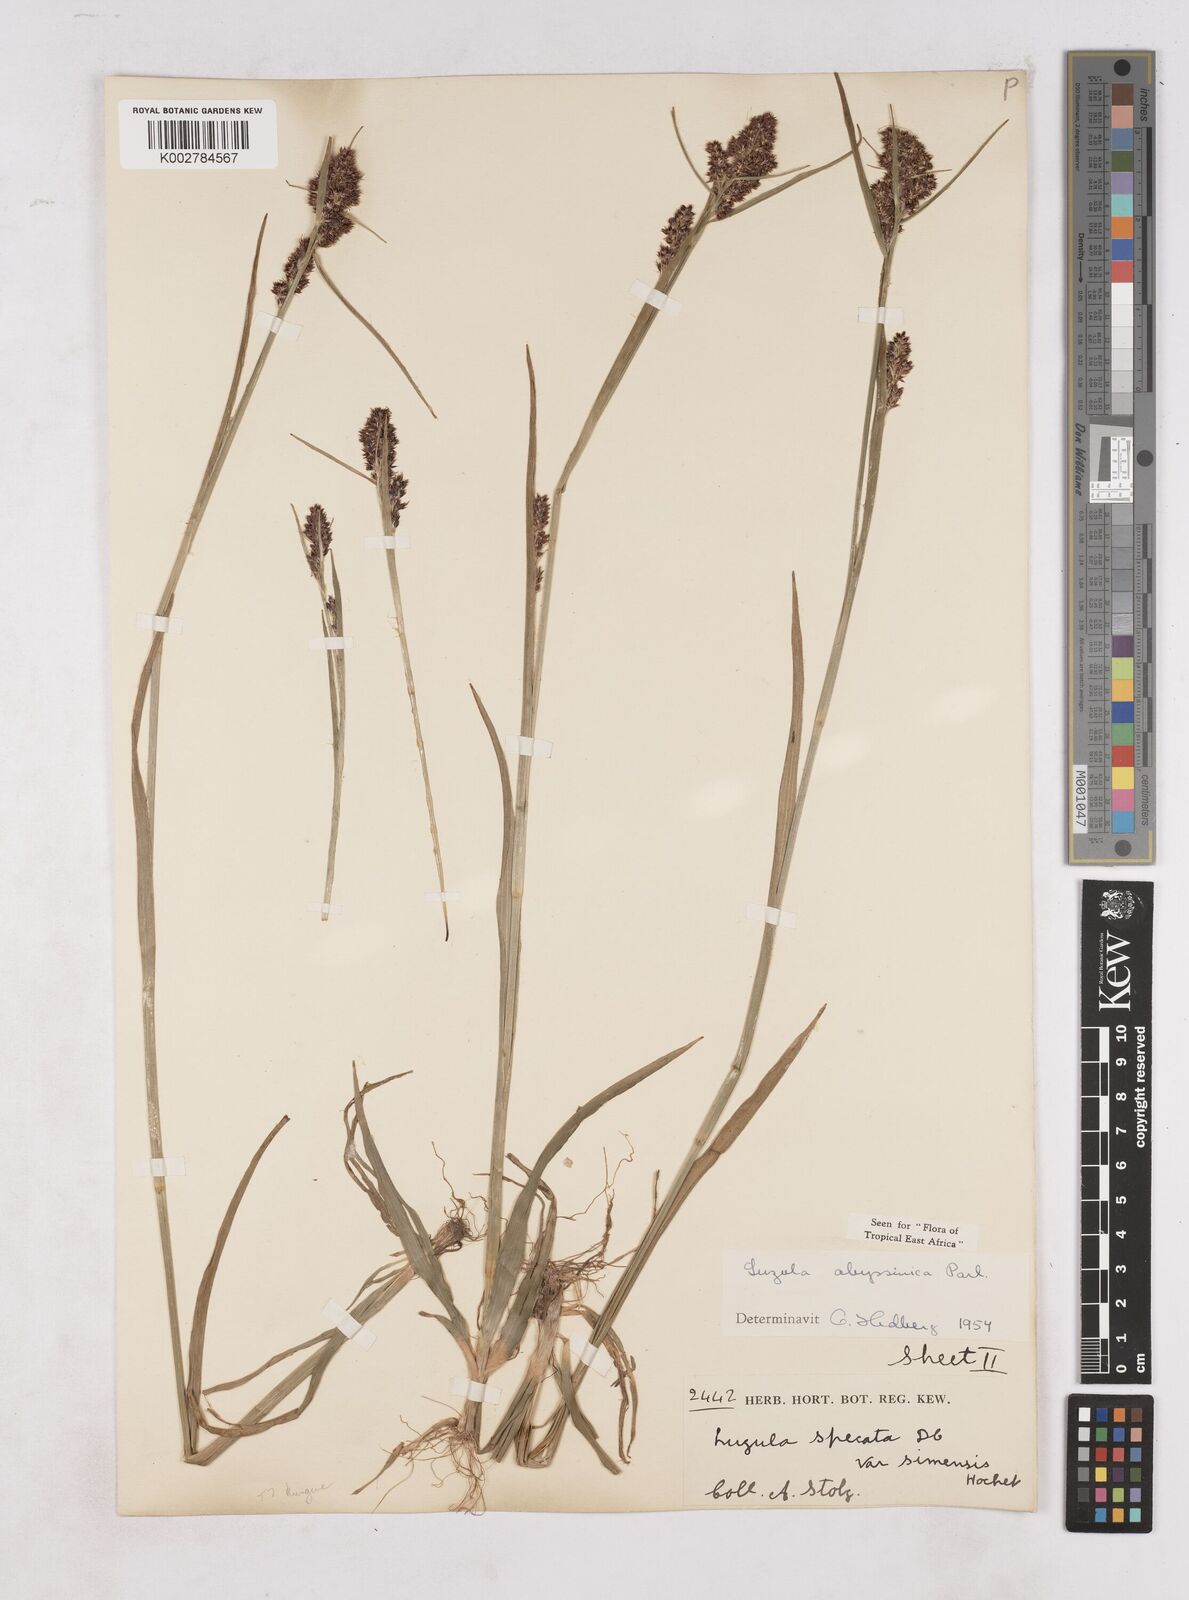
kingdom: Plantae
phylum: Tracheophyta
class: Liliopsida
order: Poales
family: Juncaceae
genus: Luzula
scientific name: Luzula abyssinica
